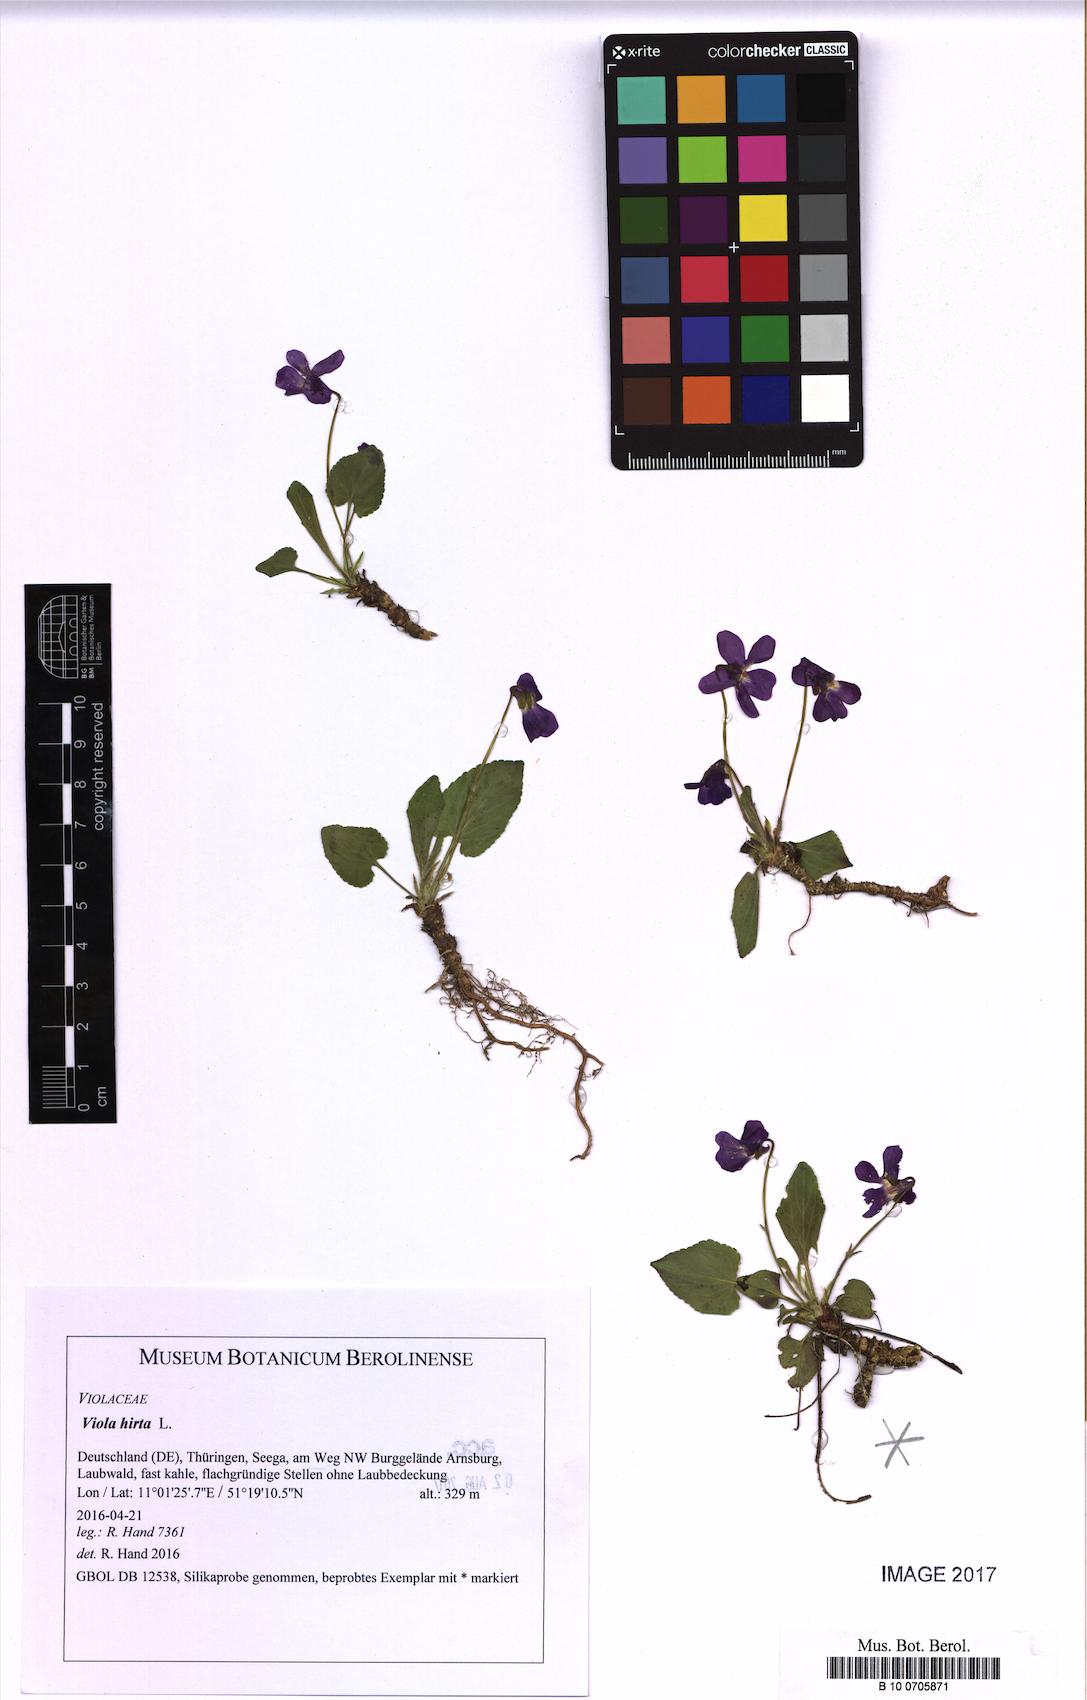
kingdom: Plantae
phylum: Tracheophyta
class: Magnoliopsida
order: Malpighiales
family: Violaceae
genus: Viola
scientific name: Viola hirta
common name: Hairy violet
